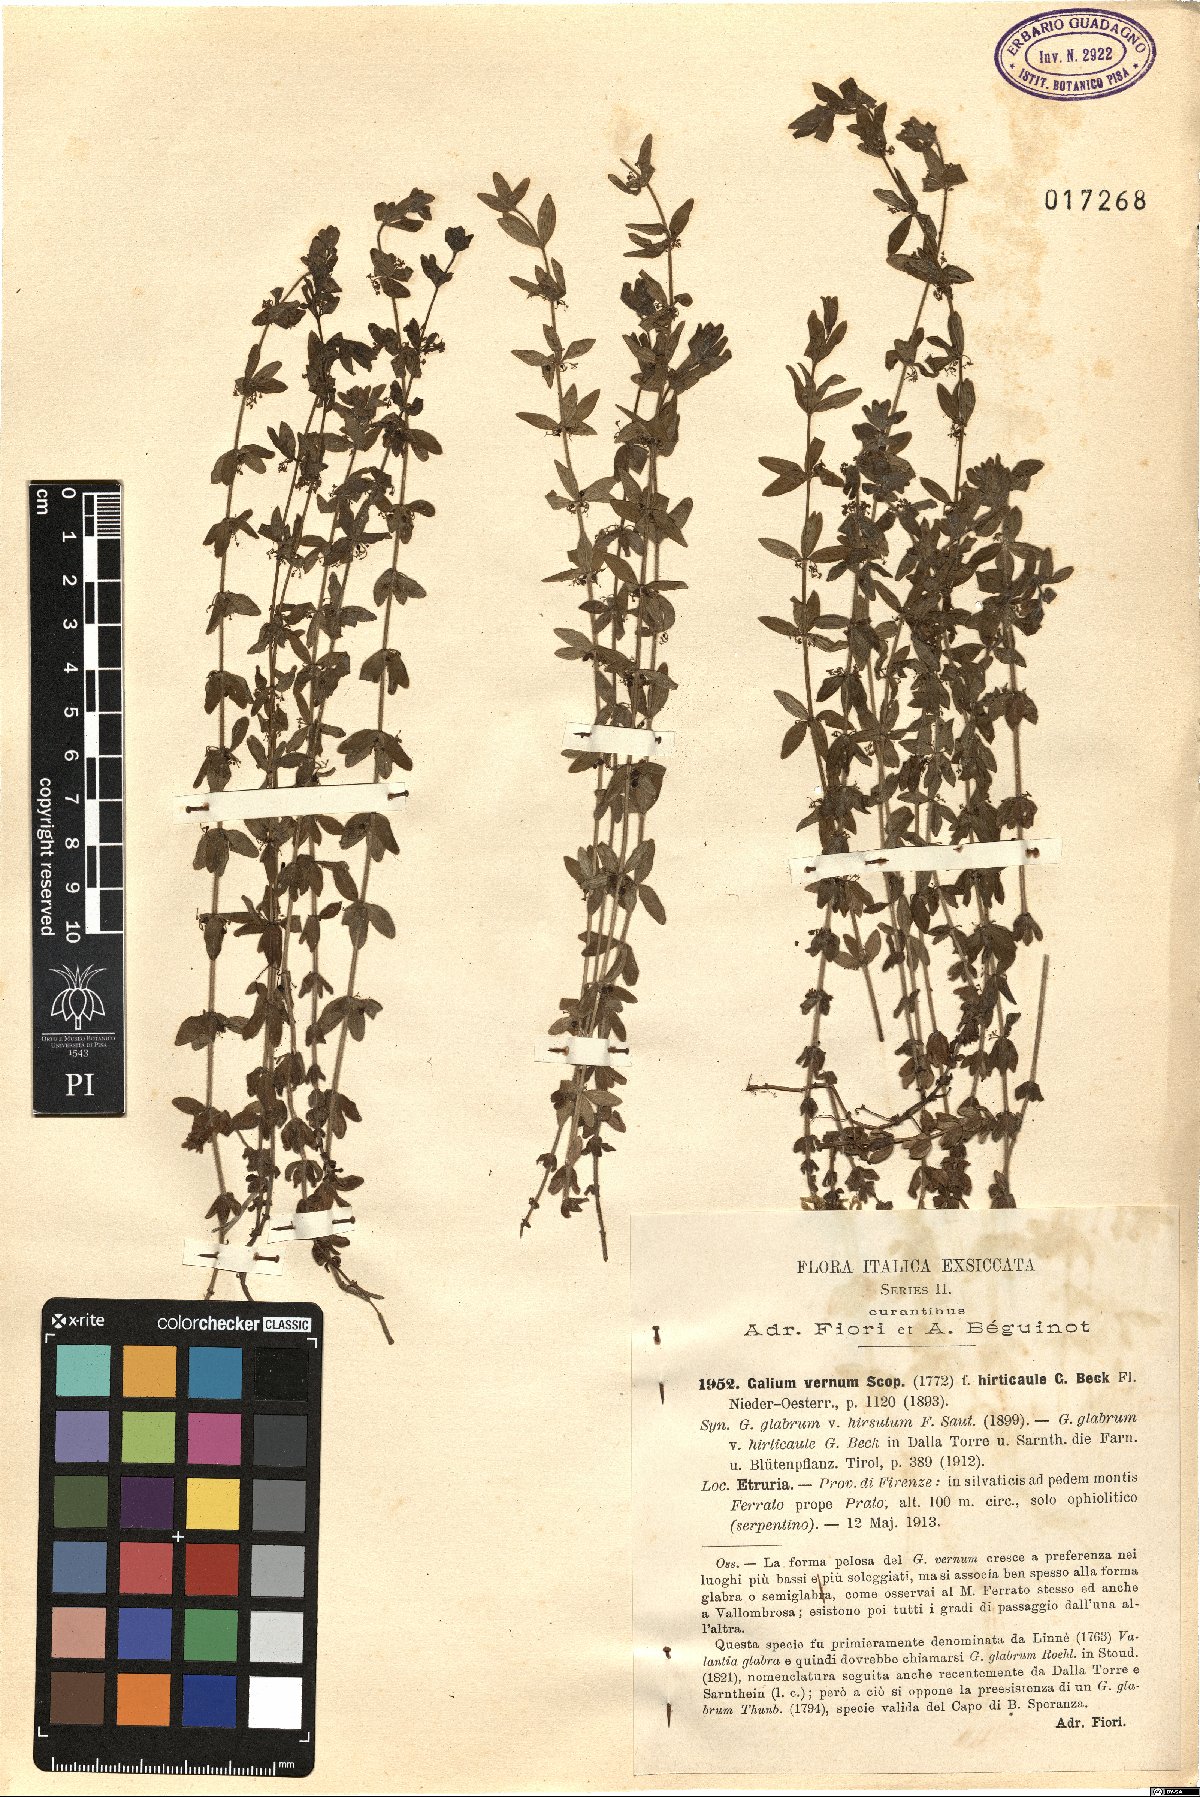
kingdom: Plantae
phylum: Tracheophyta
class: Magnoliopsida
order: Gentianales
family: Rubiaceae
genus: Cruciata
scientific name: Cruciata glabra
